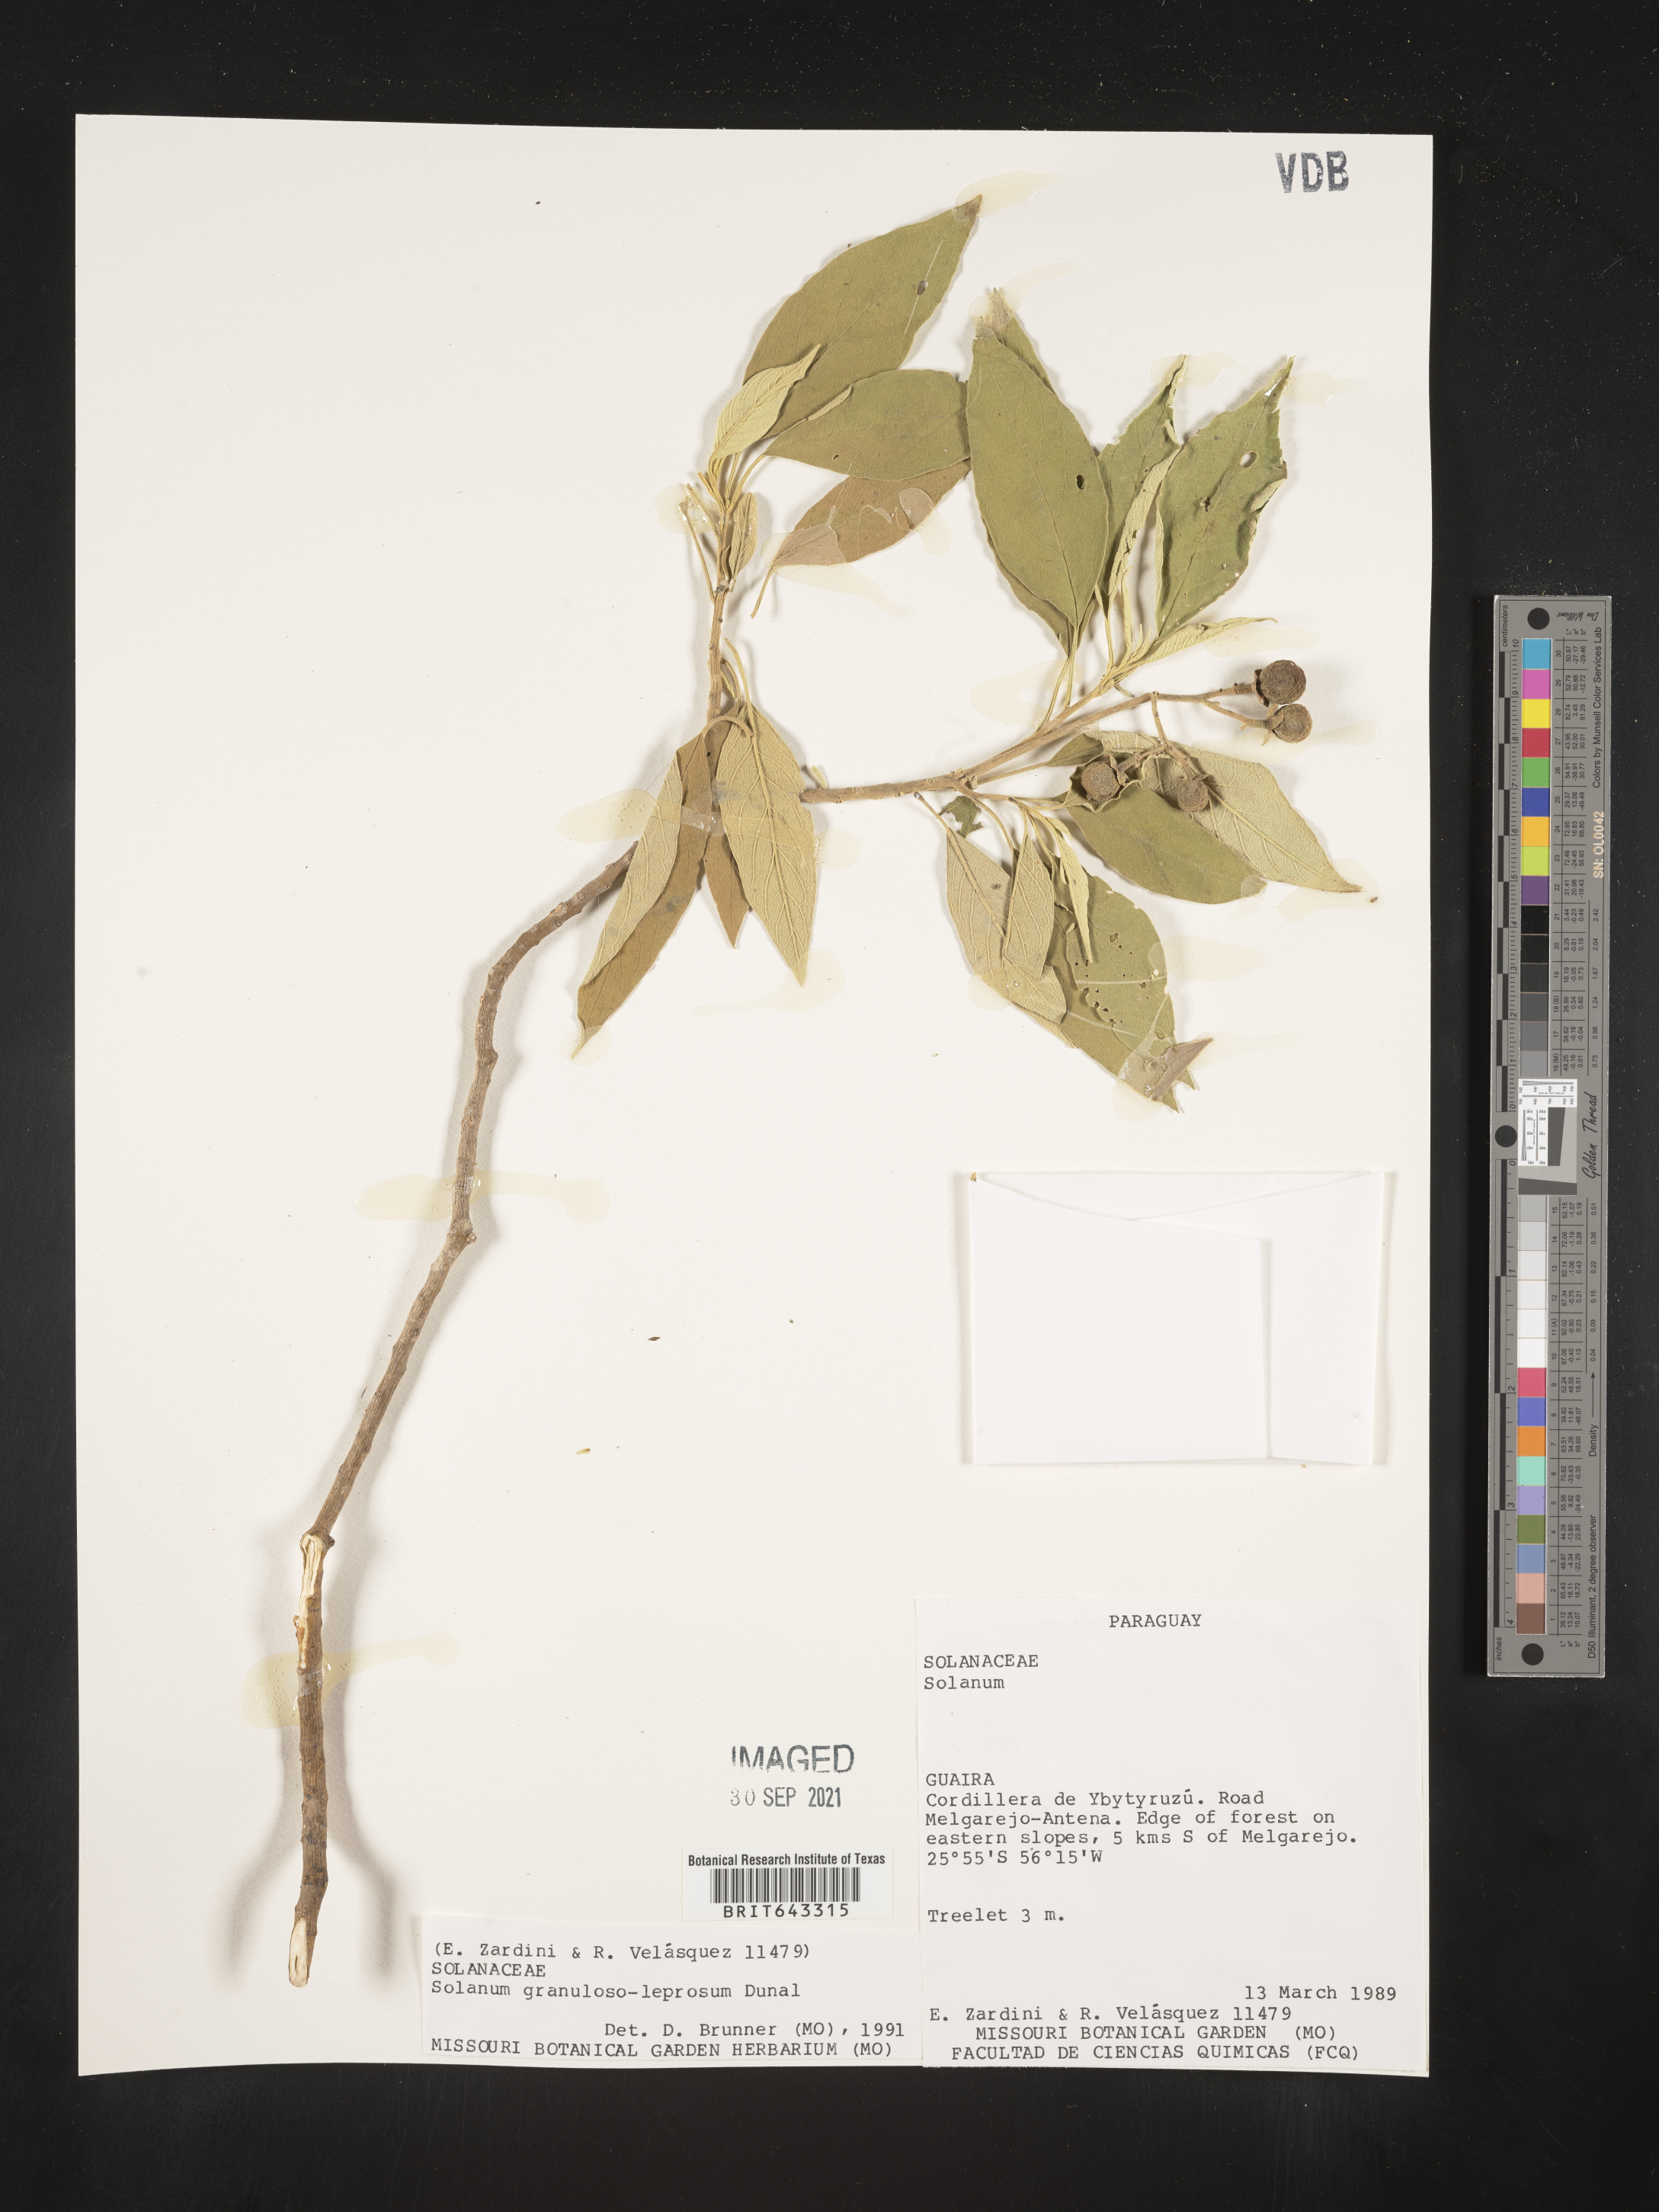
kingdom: Plantae
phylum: Tracheophyta
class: Magnoliopsida
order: Solanales
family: Solanaceae
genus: Solanum
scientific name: Solanum
